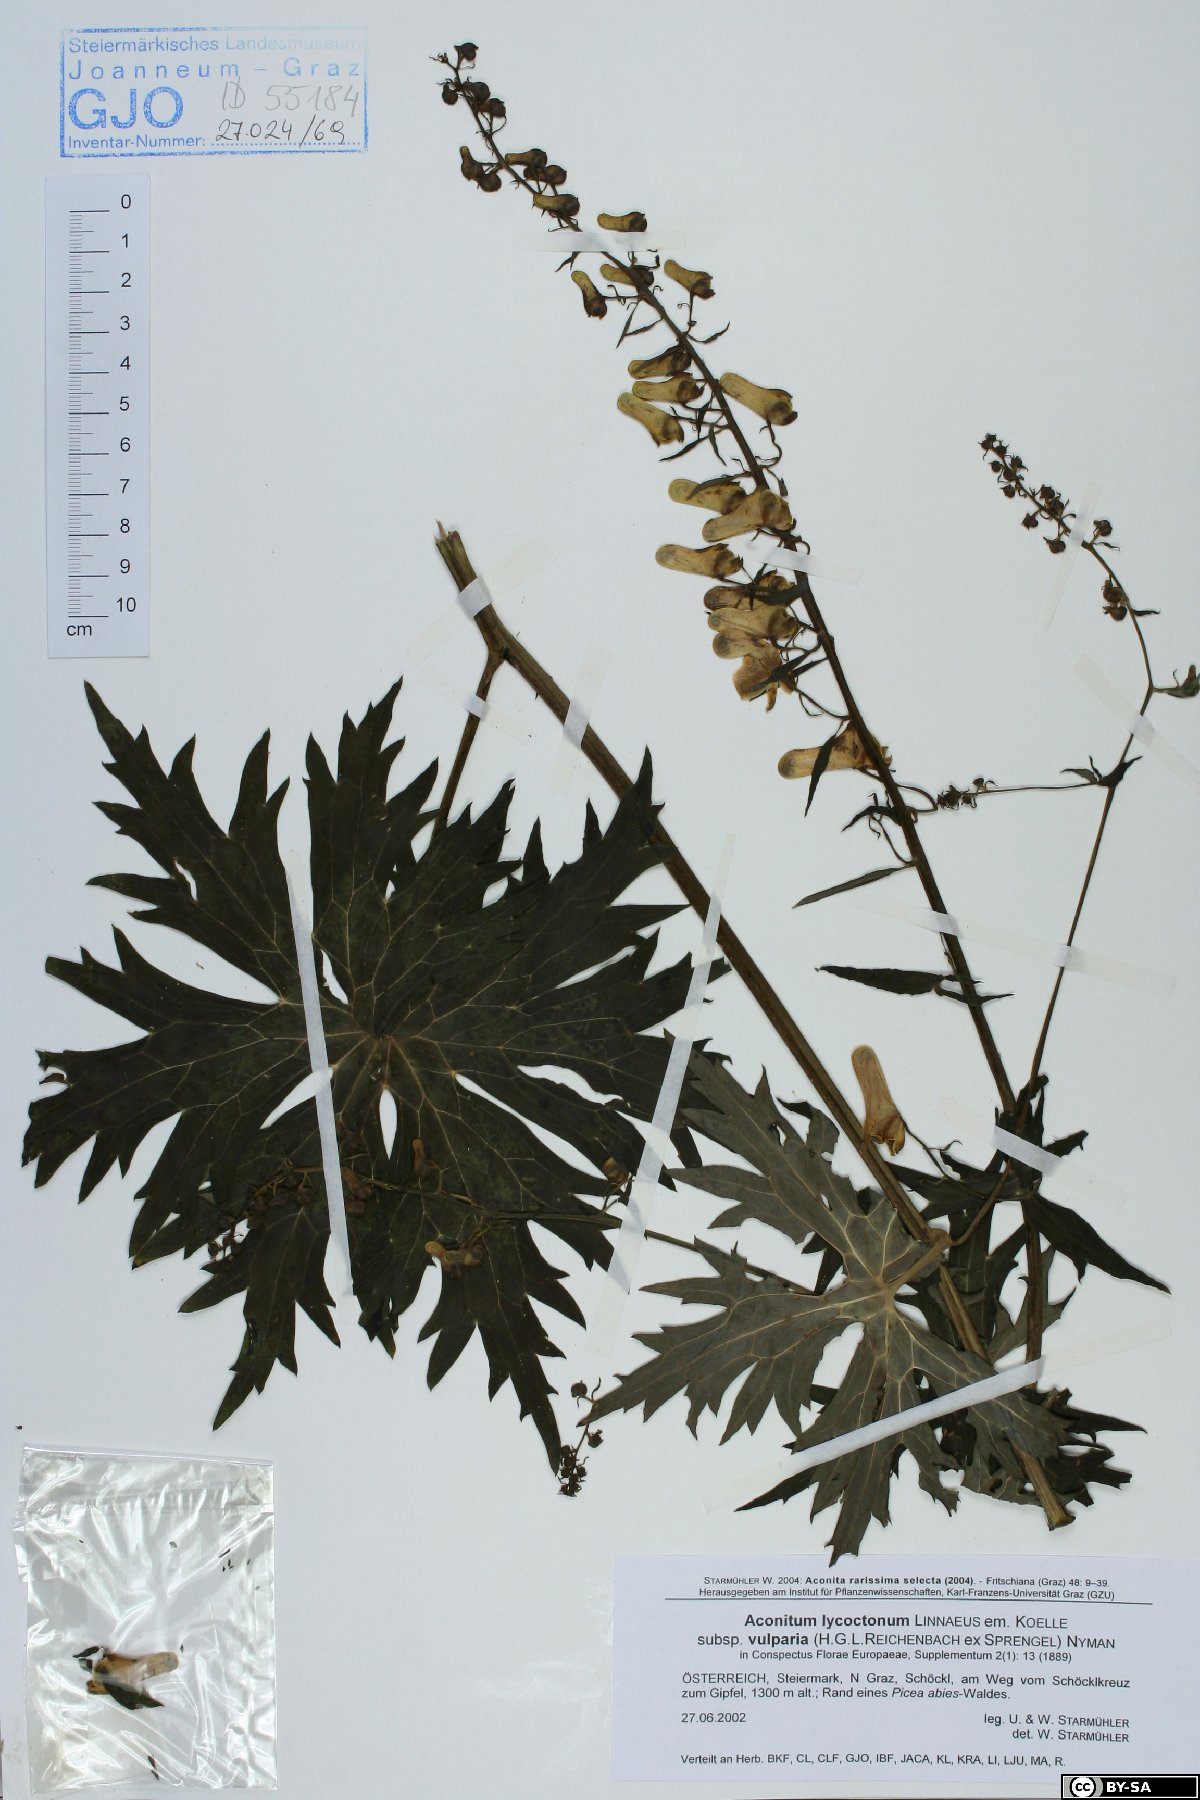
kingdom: Plantae
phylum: Tracheophyta
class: Magnoliopsida
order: Ranunculales
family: Ranunculaceae
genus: Aconitum
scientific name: Aconitum lycoctonum
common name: Wolf's-bane
